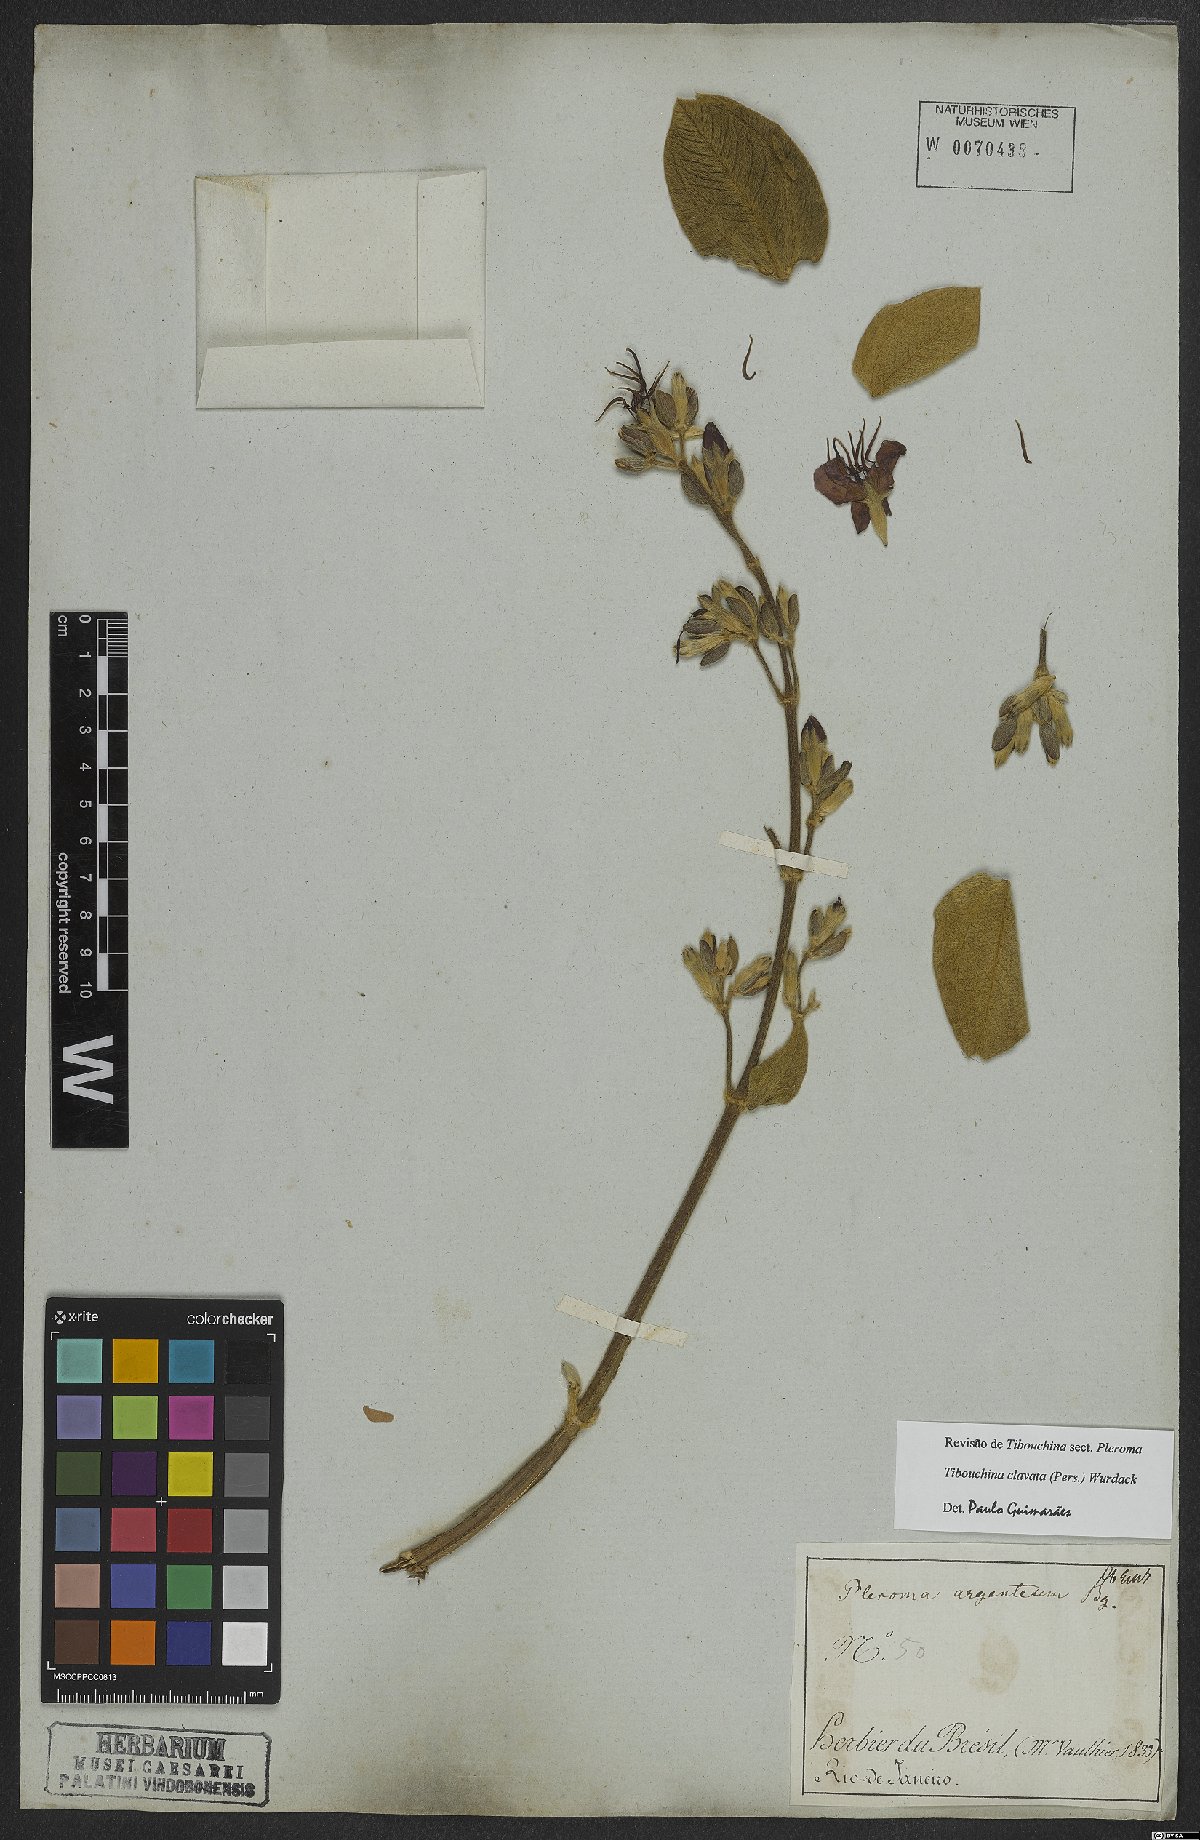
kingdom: Plantae
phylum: Tracheophyta
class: Magnoliopsida
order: Myrtales
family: Melastomataceae
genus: Pleroma
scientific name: Pleroma clavatum
